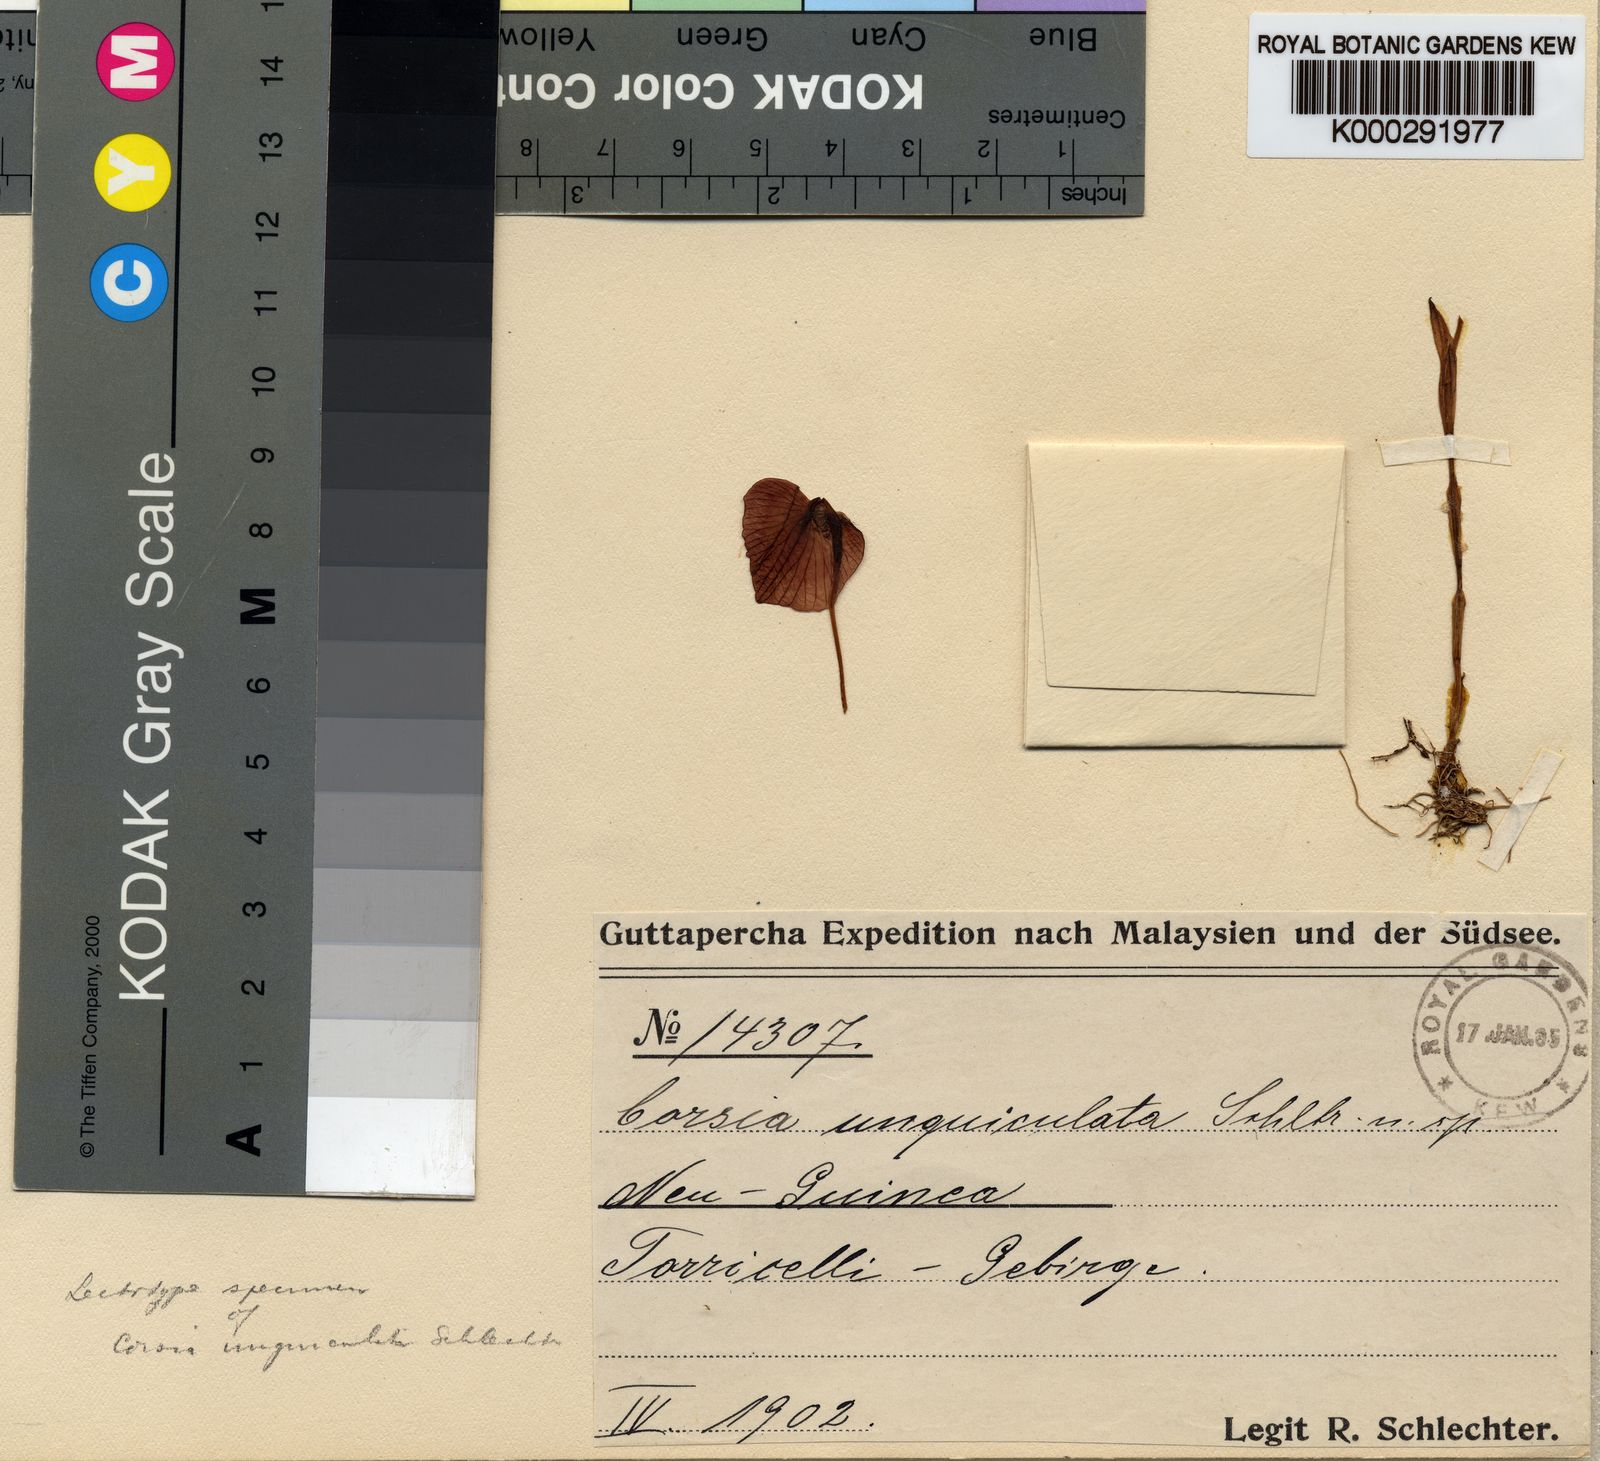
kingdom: Plantae
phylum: Tracheophyta
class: Liliopsida
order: Liliales
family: Corsiaceae
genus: Corsia
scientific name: Corsia unguiculata
